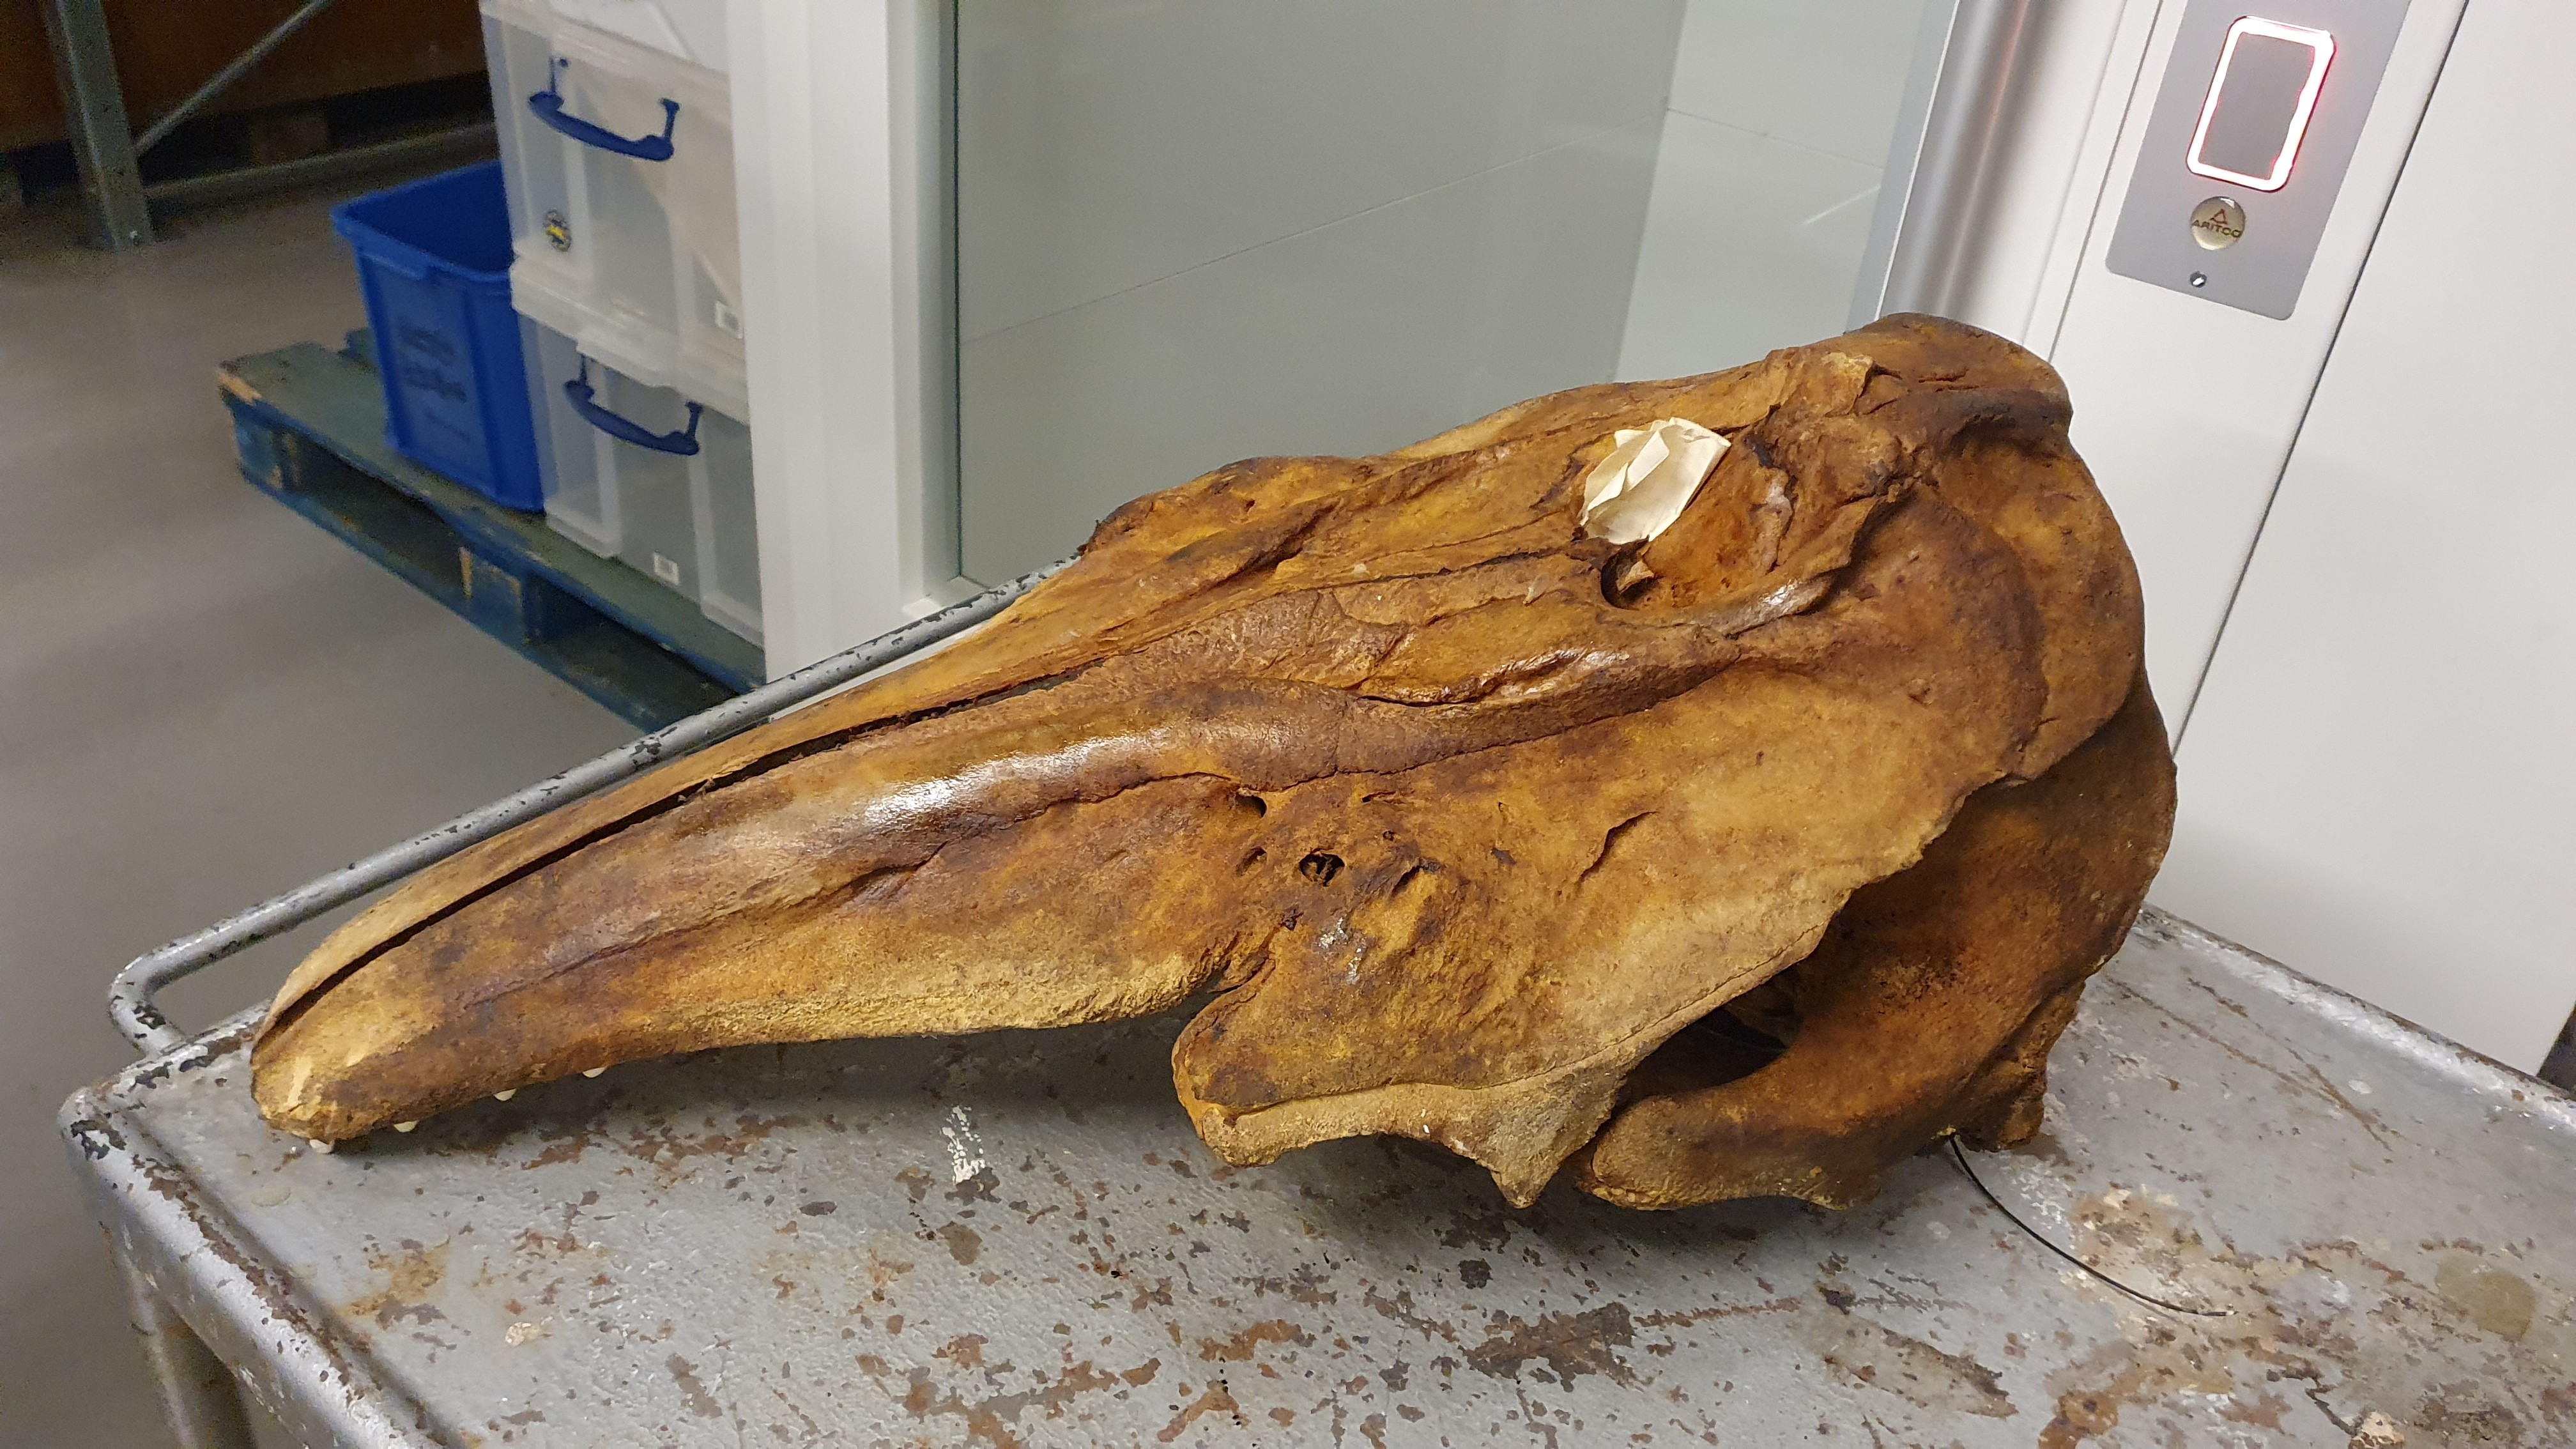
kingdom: Animalia
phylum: Chordata
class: Mammalia
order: Cetacea
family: Delphinidae
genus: Orcinus
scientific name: Orcinus orca
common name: Killer whale
